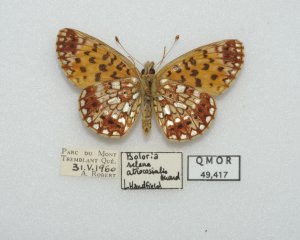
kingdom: Animalia
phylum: Arthropoda
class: Insecta
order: Lepidoptera
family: Nymphalidae
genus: Boloria
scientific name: Boloria selene
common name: Silver-bordered Fritillary
